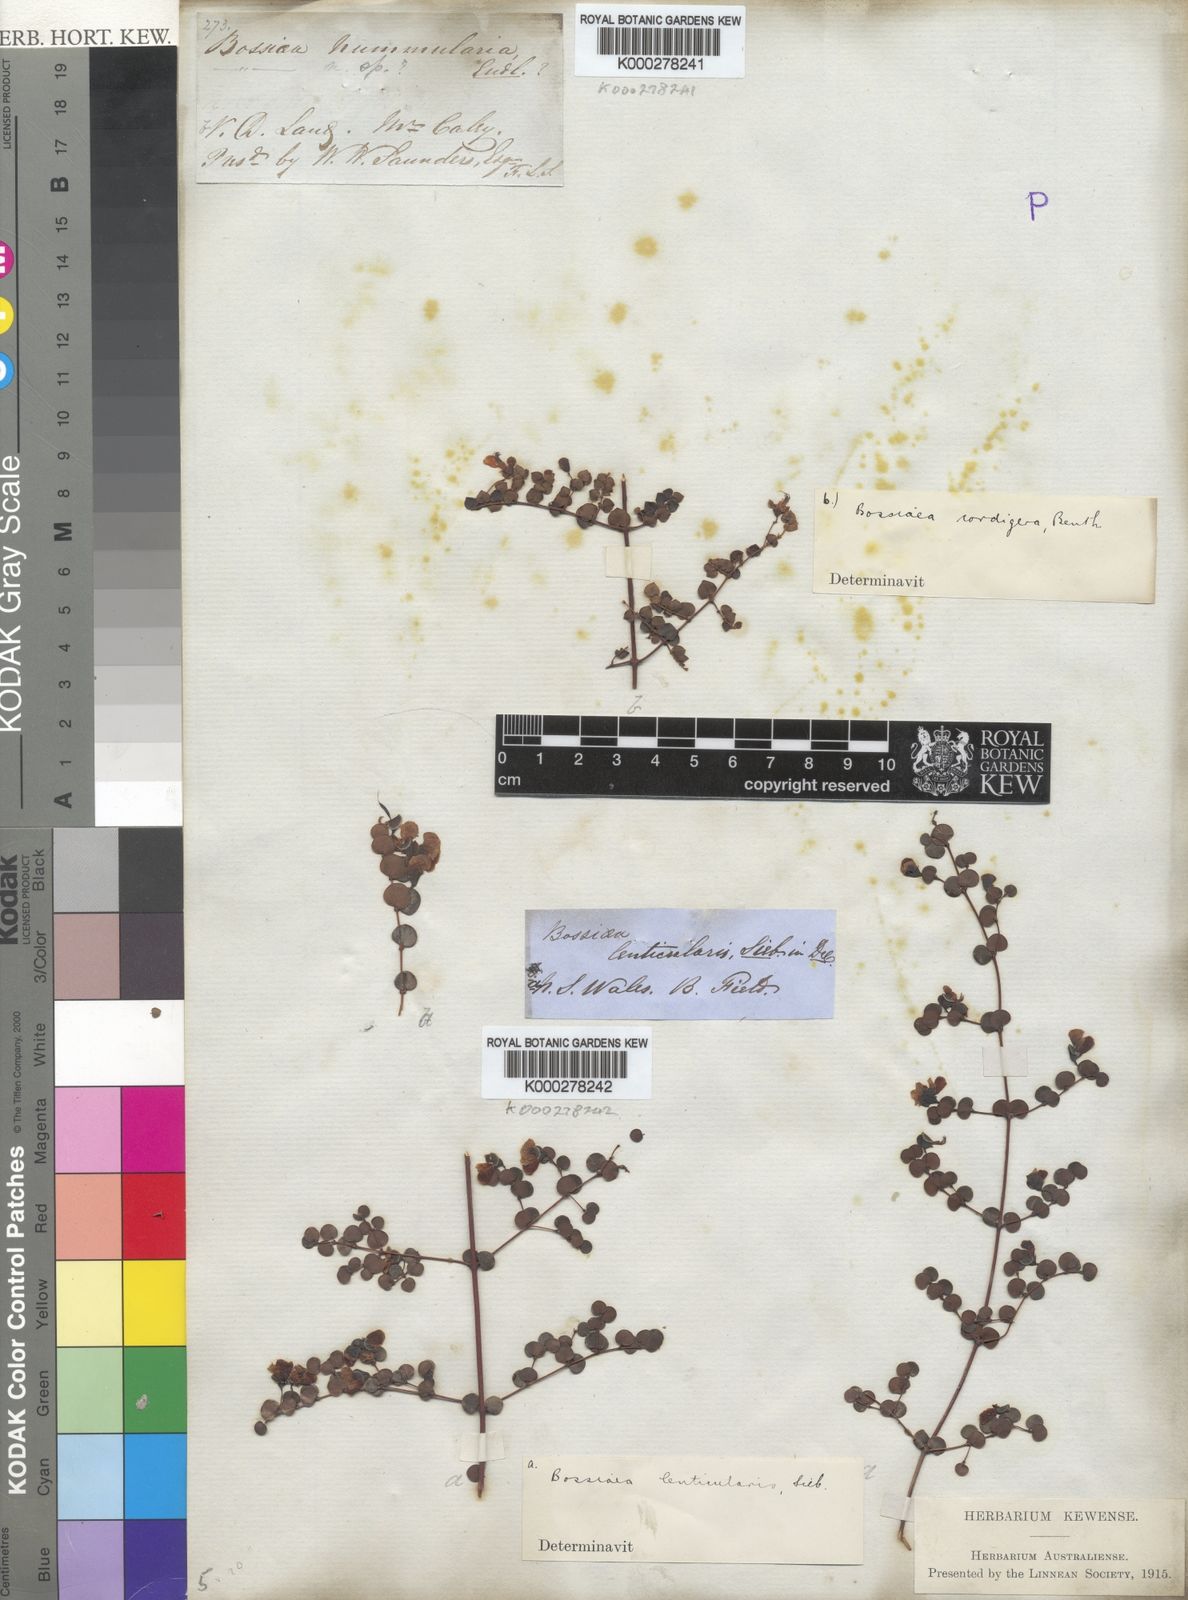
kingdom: Plantae
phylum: Tracheophyta
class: Magnoliopsida
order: Fabales
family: Fabaceae
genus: Bossiaea
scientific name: Bossiaea hendersonii
